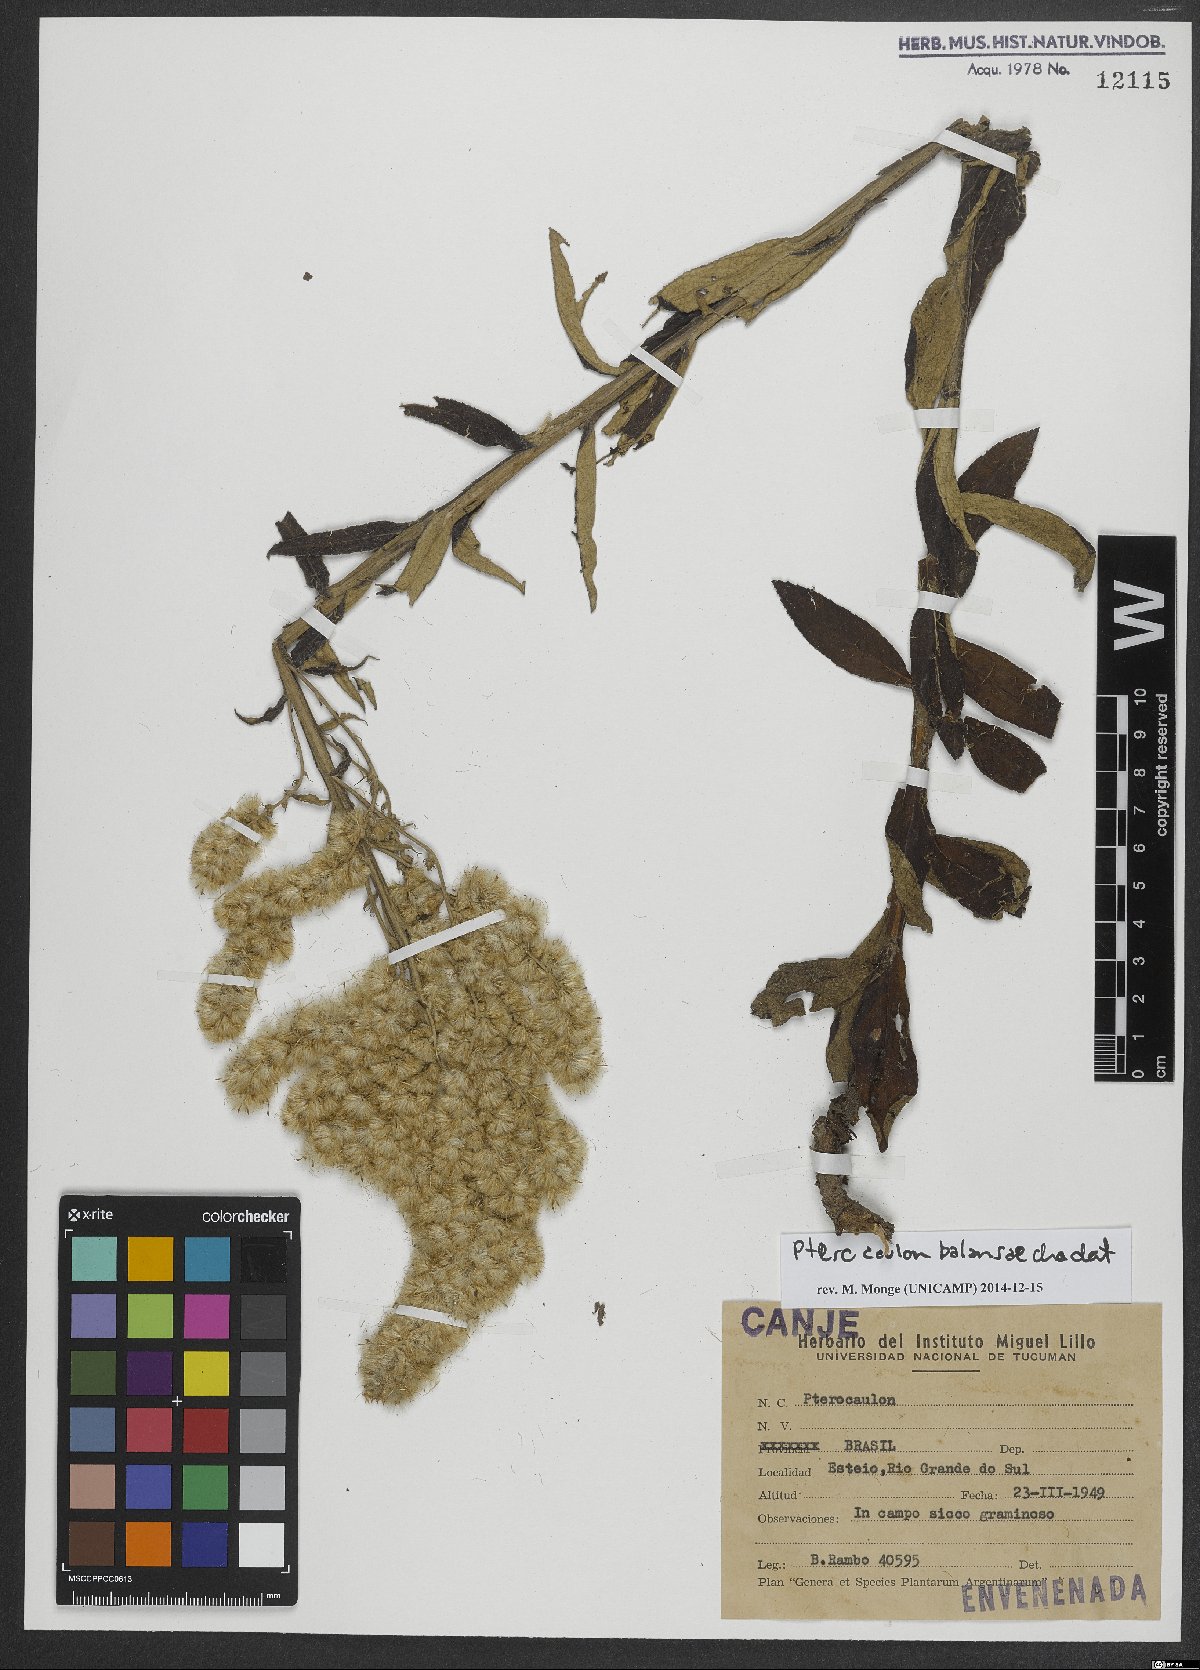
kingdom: Plantae
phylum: Tracheophyta
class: Magnoliopsida
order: Asterales
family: Asteraceae
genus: Pterocaulon
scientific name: Pterocaulon balansae
